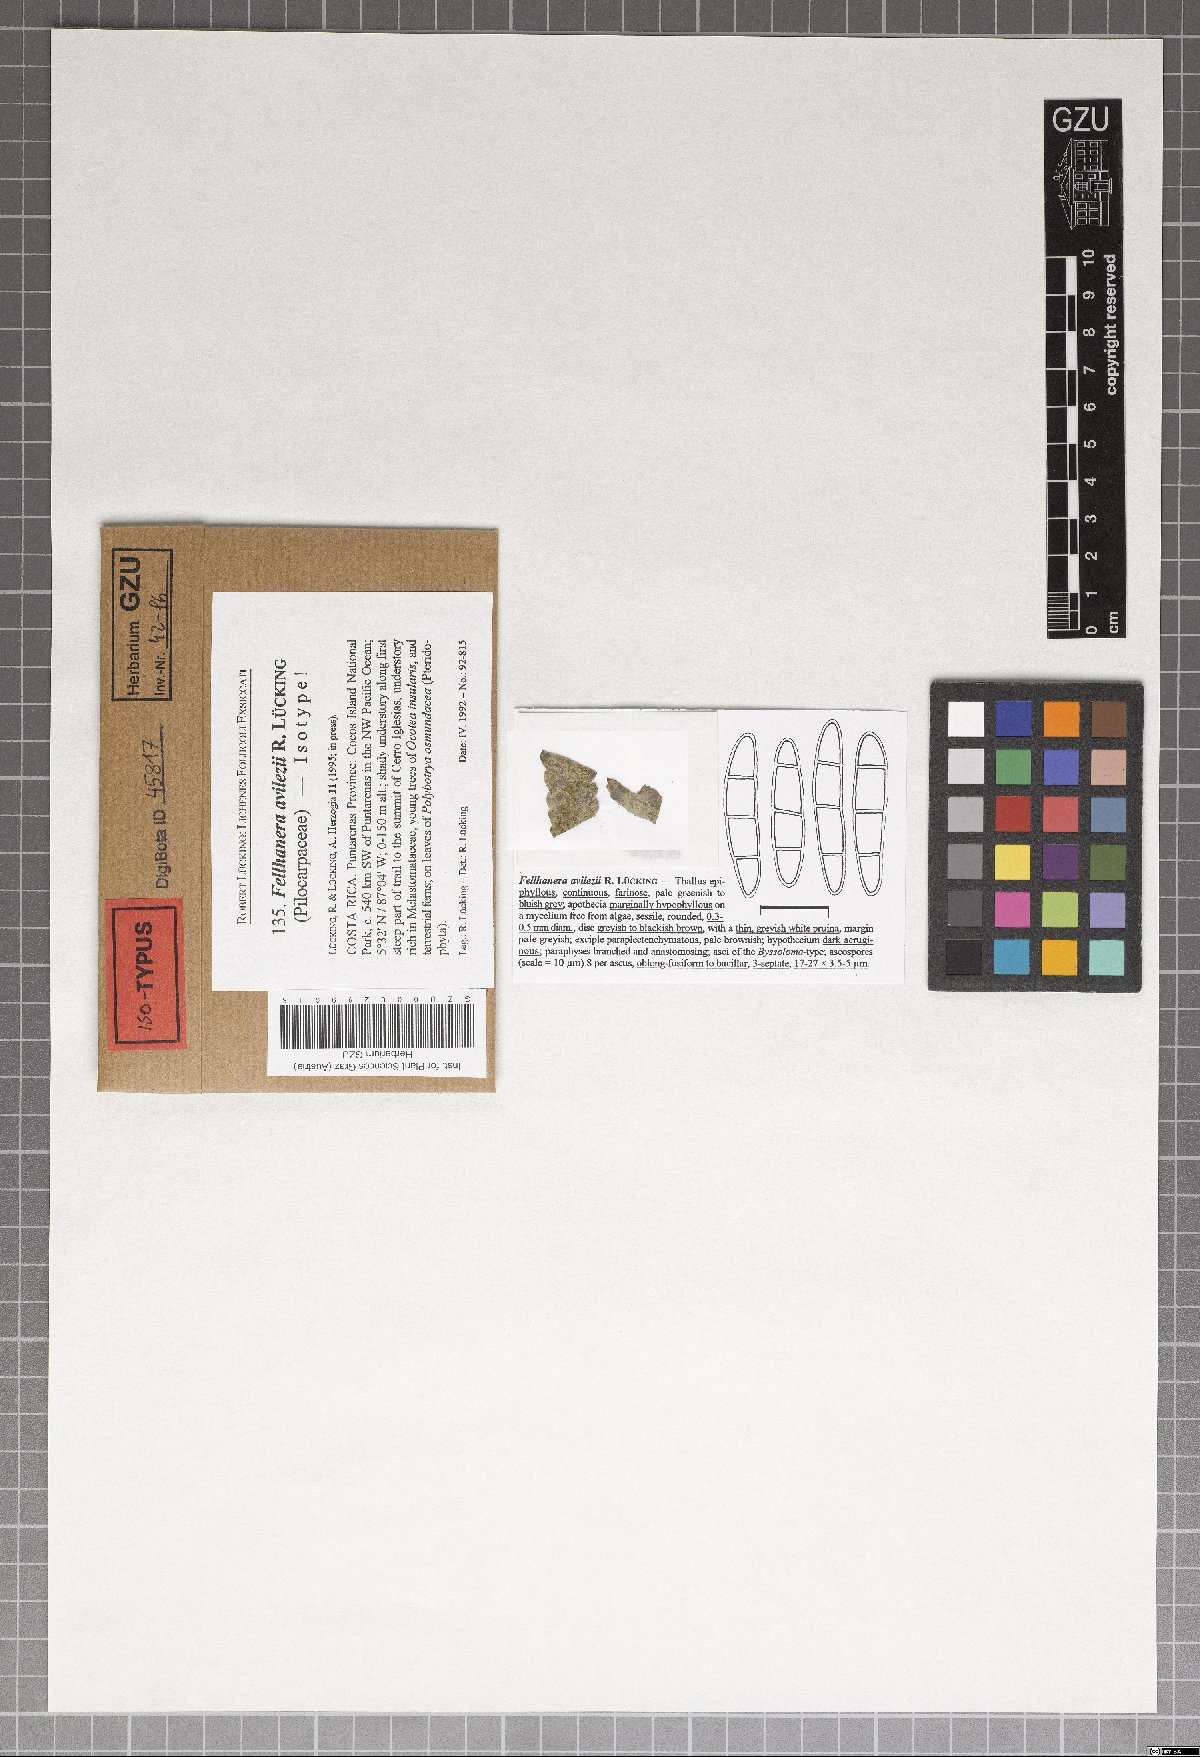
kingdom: Fungi
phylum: Ascomycota
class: Lecanoromycetes
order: Lecanorales
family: Pilocarpaceae
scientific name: Pilocarpaceae
